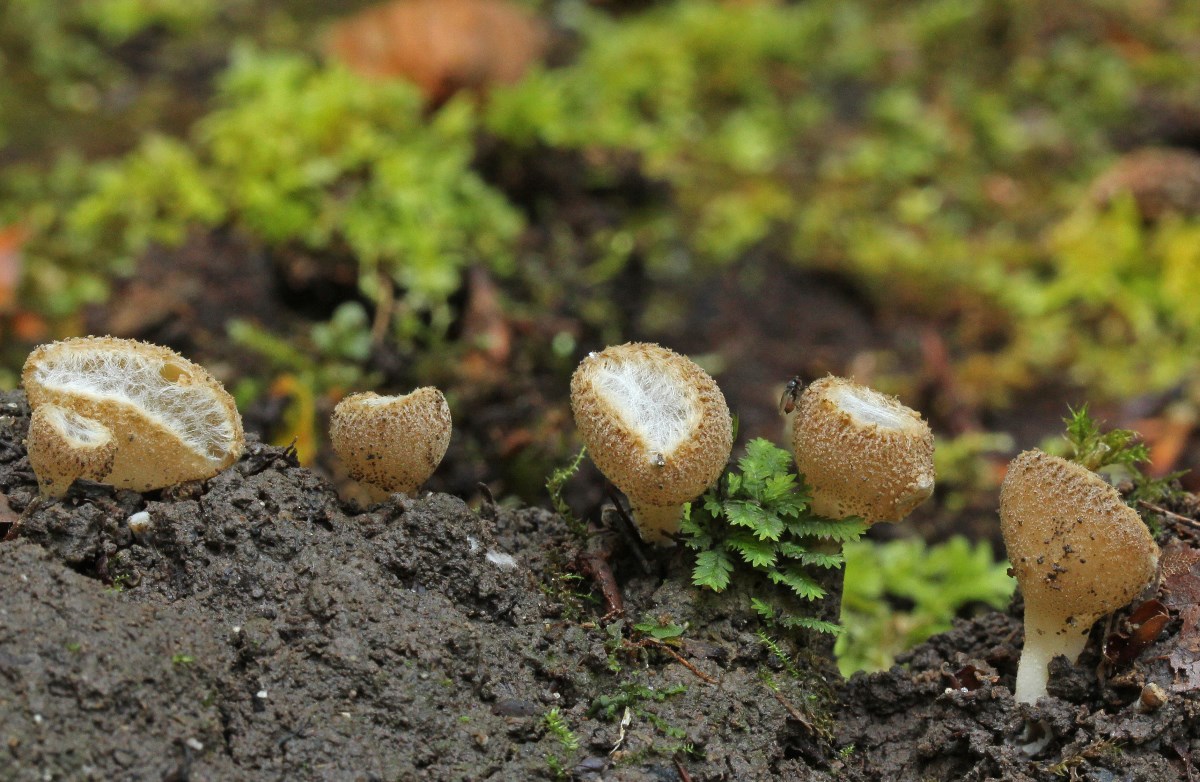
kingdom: Fungi
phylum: Ascomycota
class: Pezizomycetes
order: Pezizales
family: Pyronemataceae
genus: Tarzetta
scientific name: Tarzetta cupularis
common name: gulbrun pokalbæger
